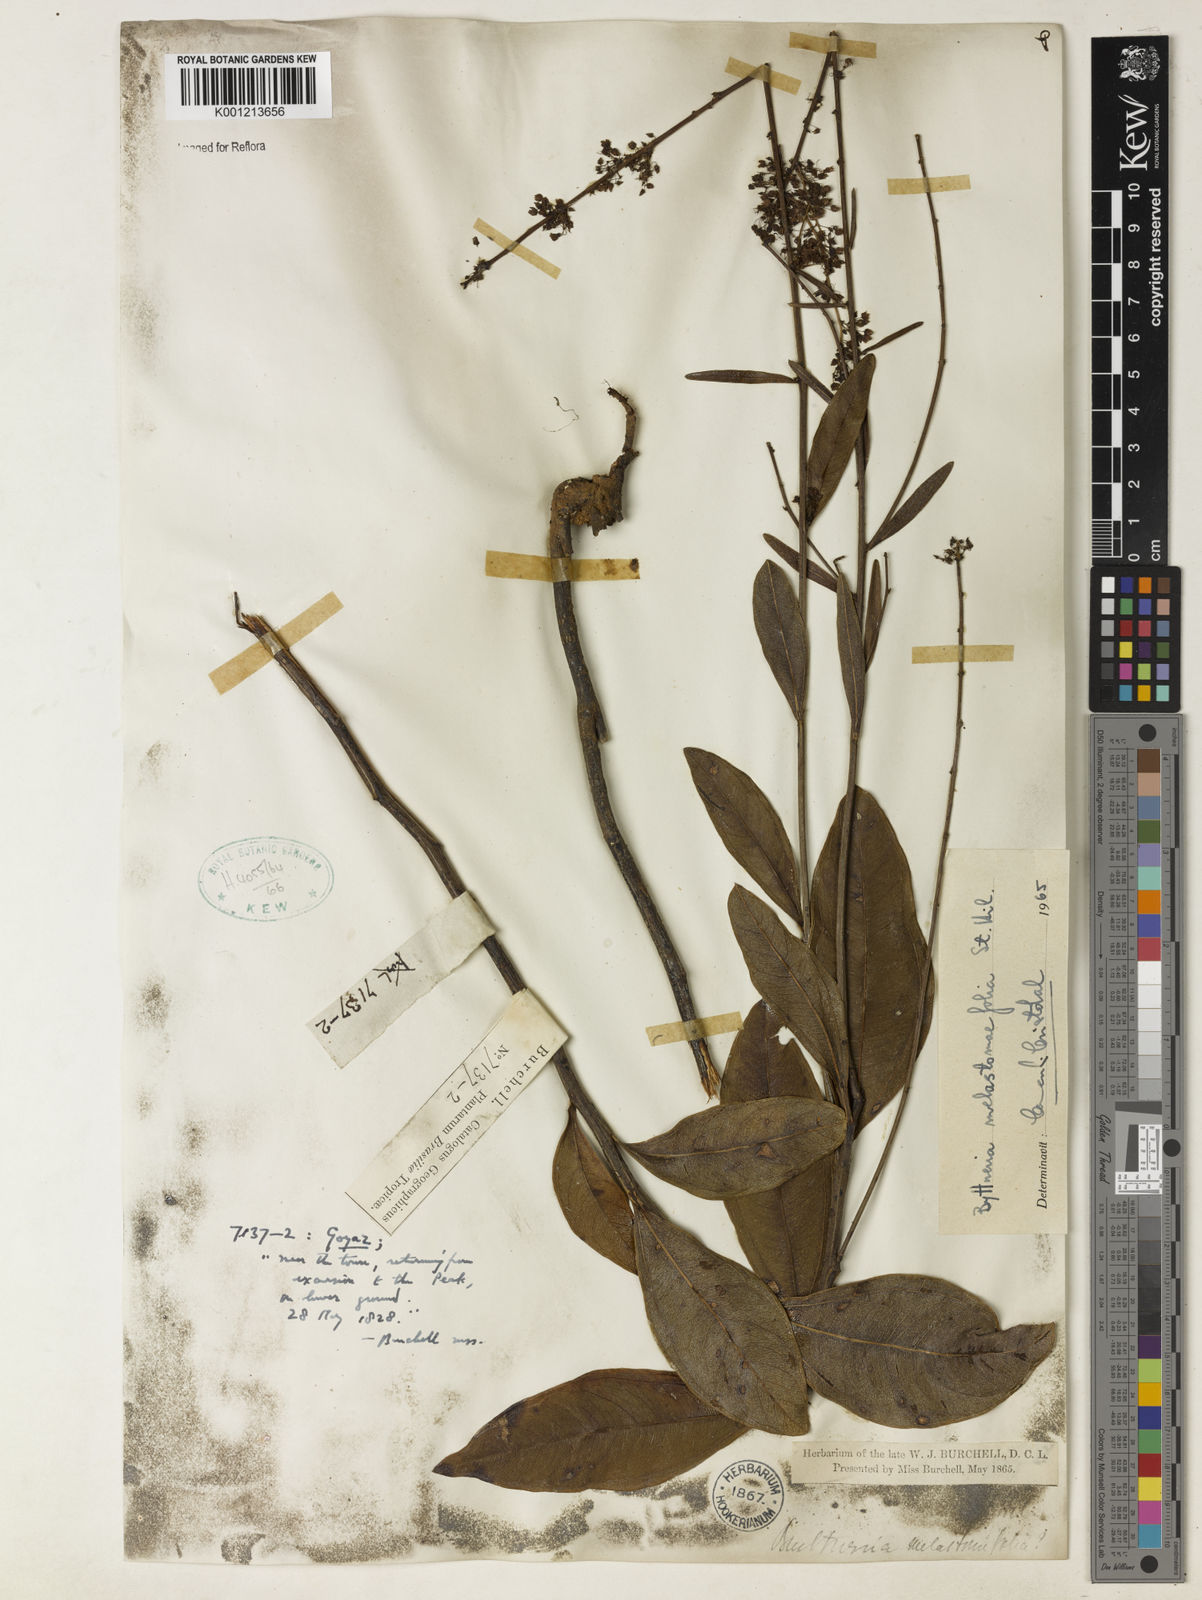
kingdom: Plantae
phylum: Tracheophyta
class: Magnoliopsida
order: Malvales
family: Malvaceae
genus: Byttneria
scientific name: Byttneria melastomifolia
